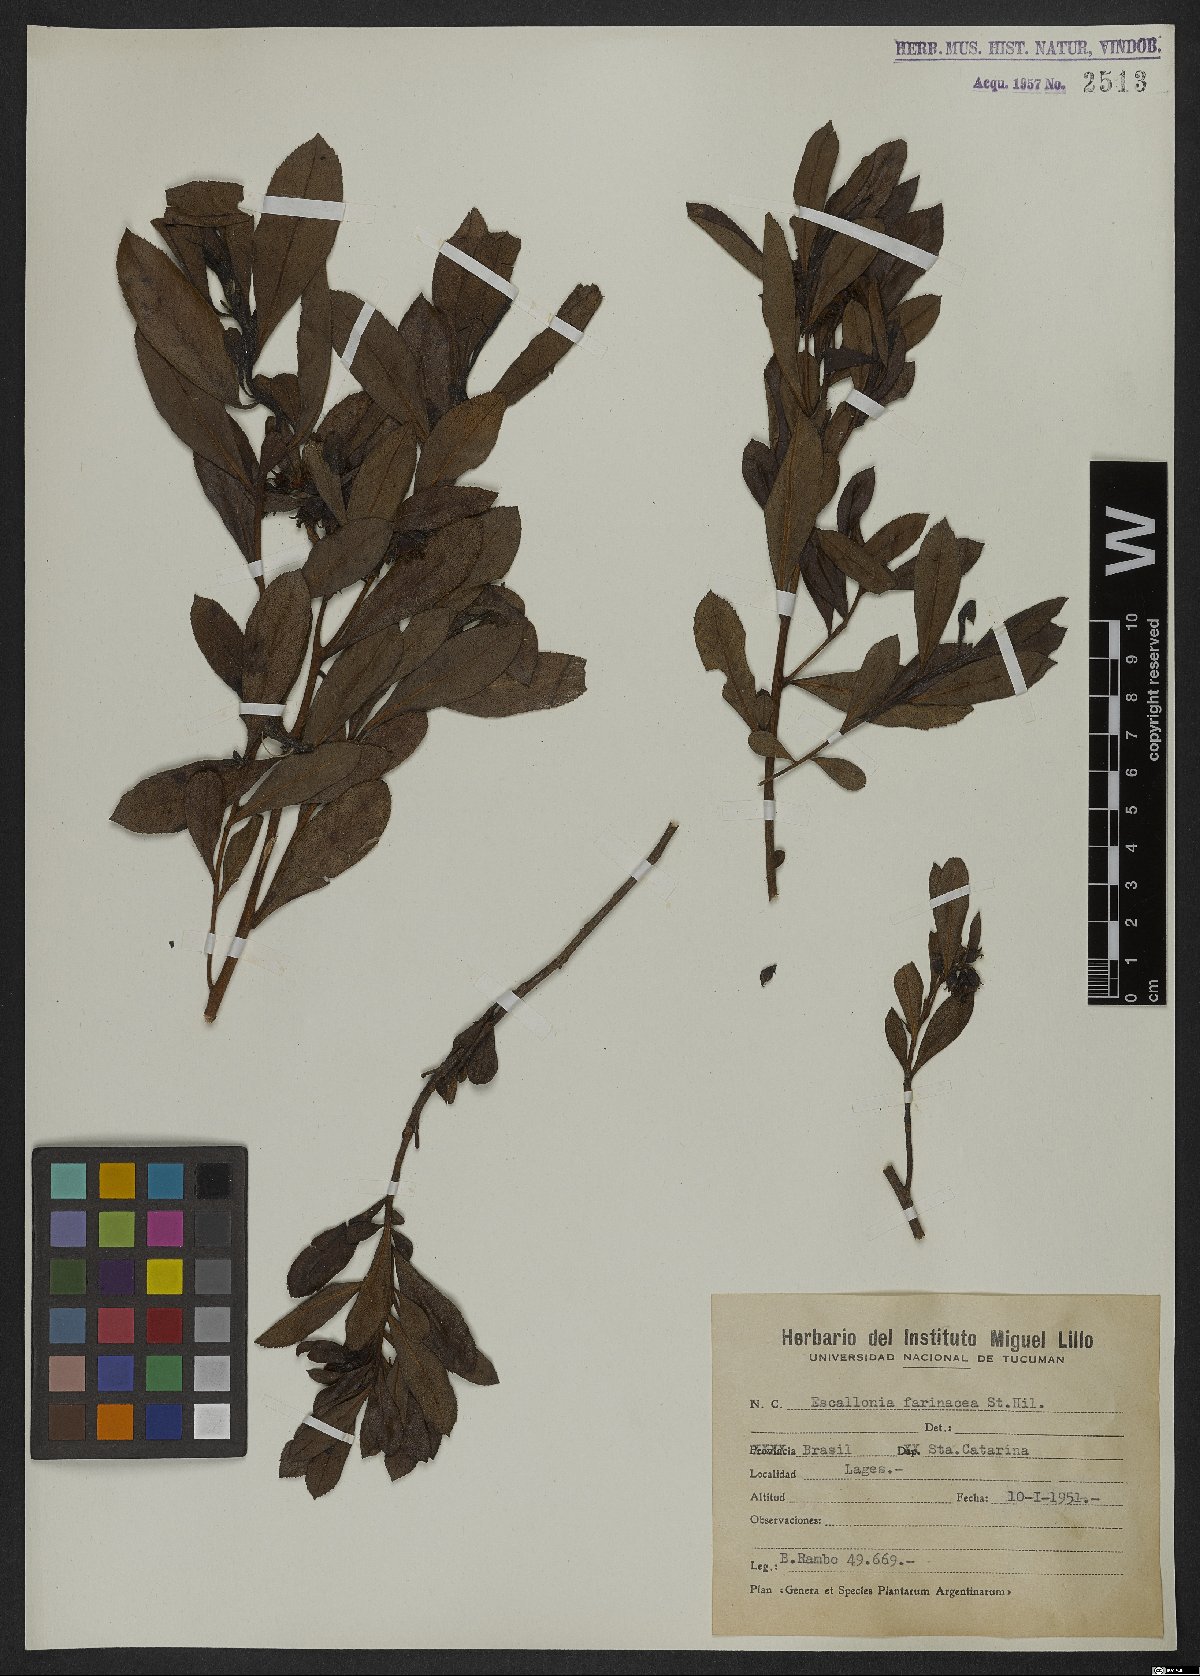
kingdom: Plantae
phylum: Tracheophyta
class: Magnoliopsida
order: Escalloniales
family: Escalloniaceae
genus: Escallonia
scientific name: Escallonia farinacea
